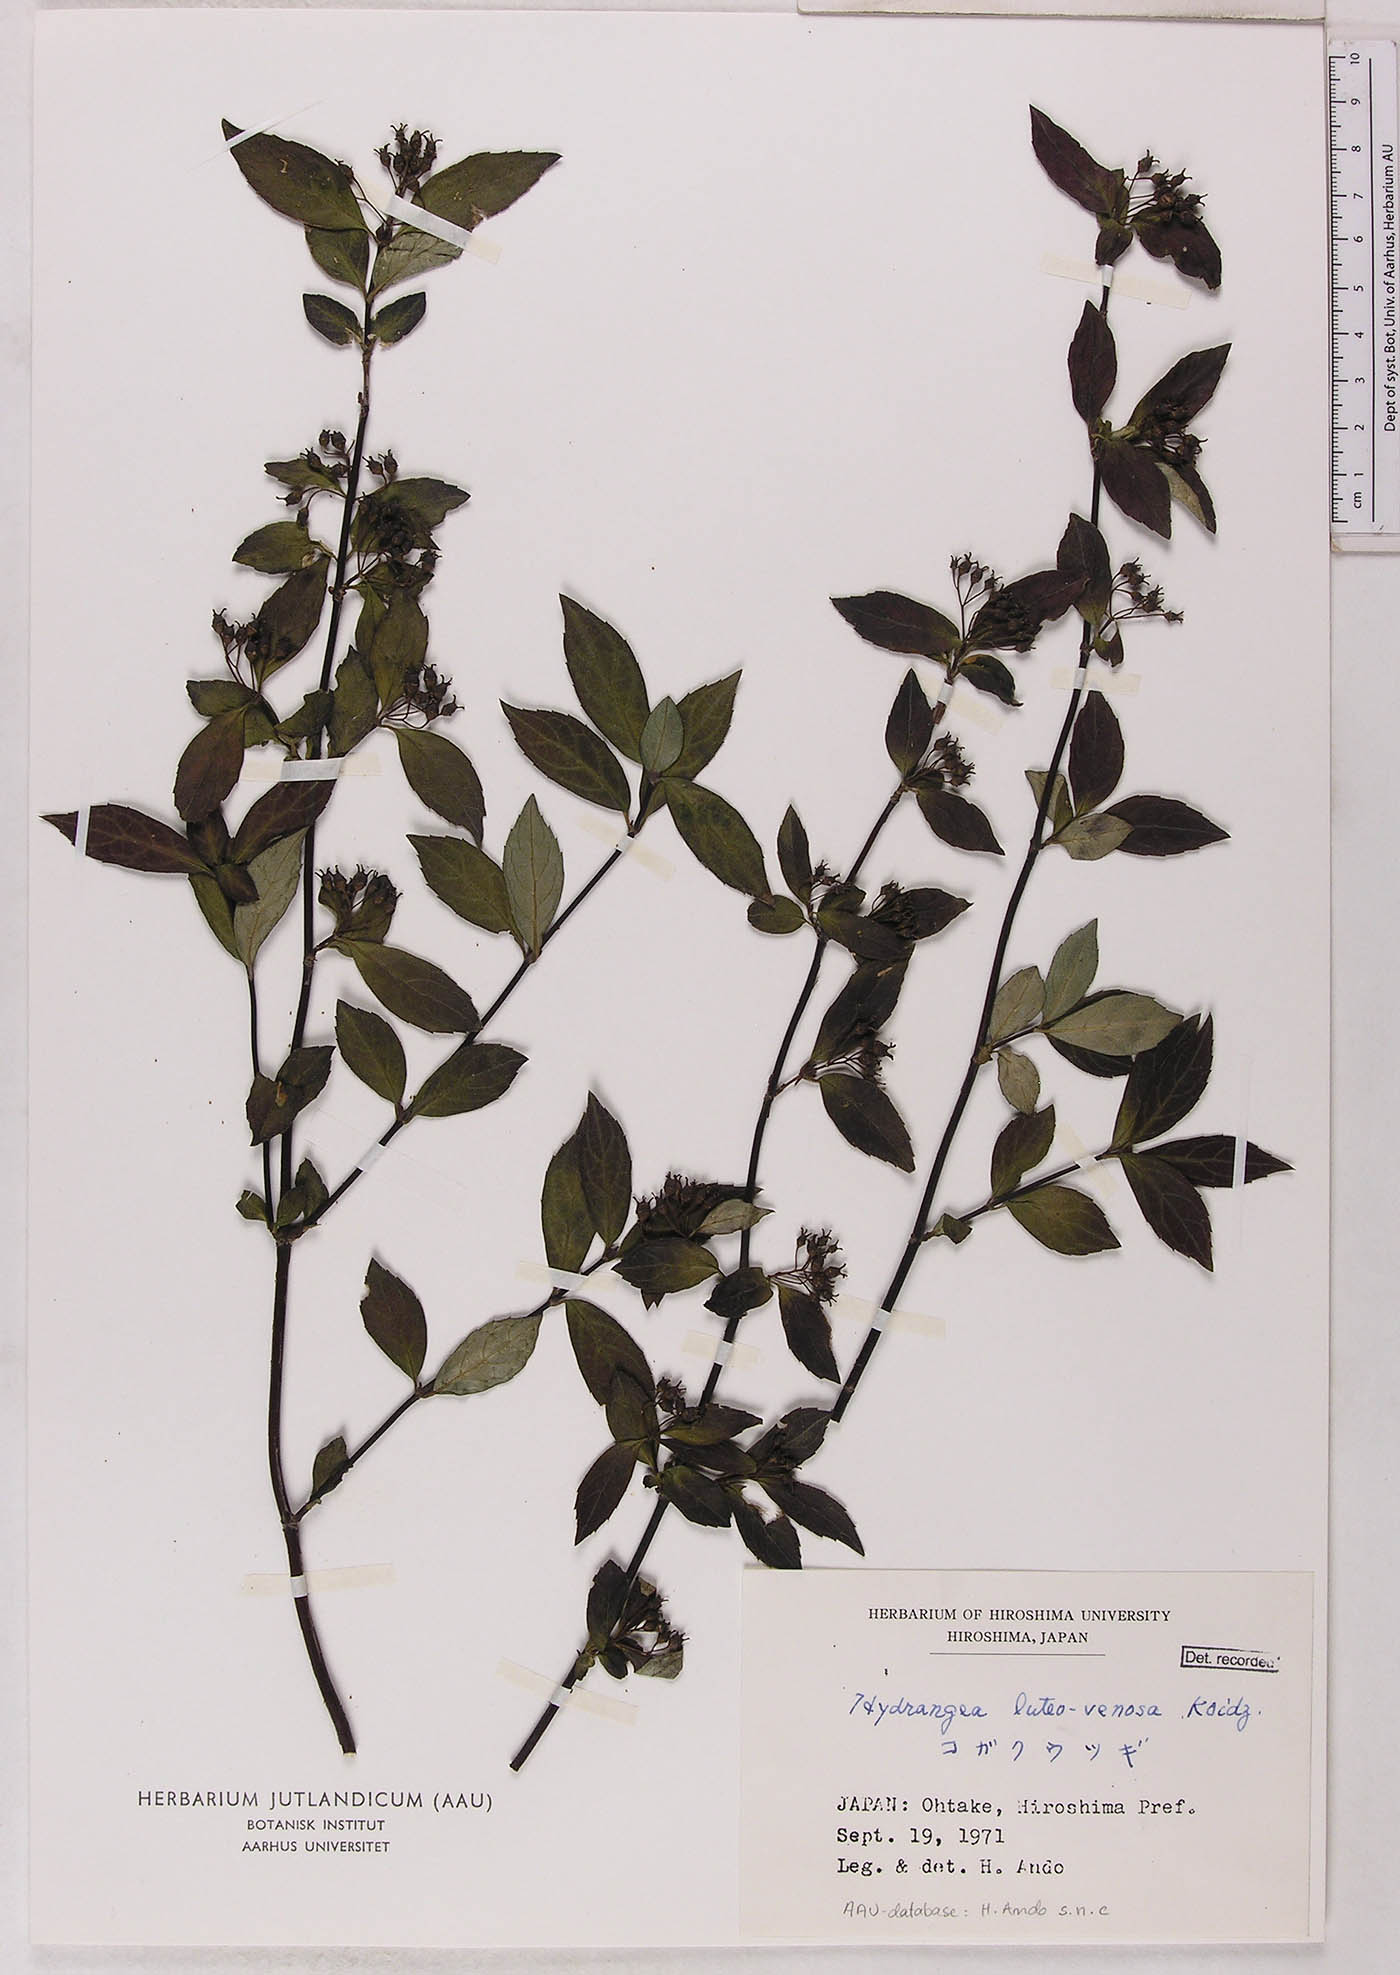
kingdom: Plantae
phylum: Tracheophyta
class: Magnoliopsida
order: Cornales
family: Hydrangeaceae
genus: Hydrangea
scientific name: Hydrangea luteovenosa
